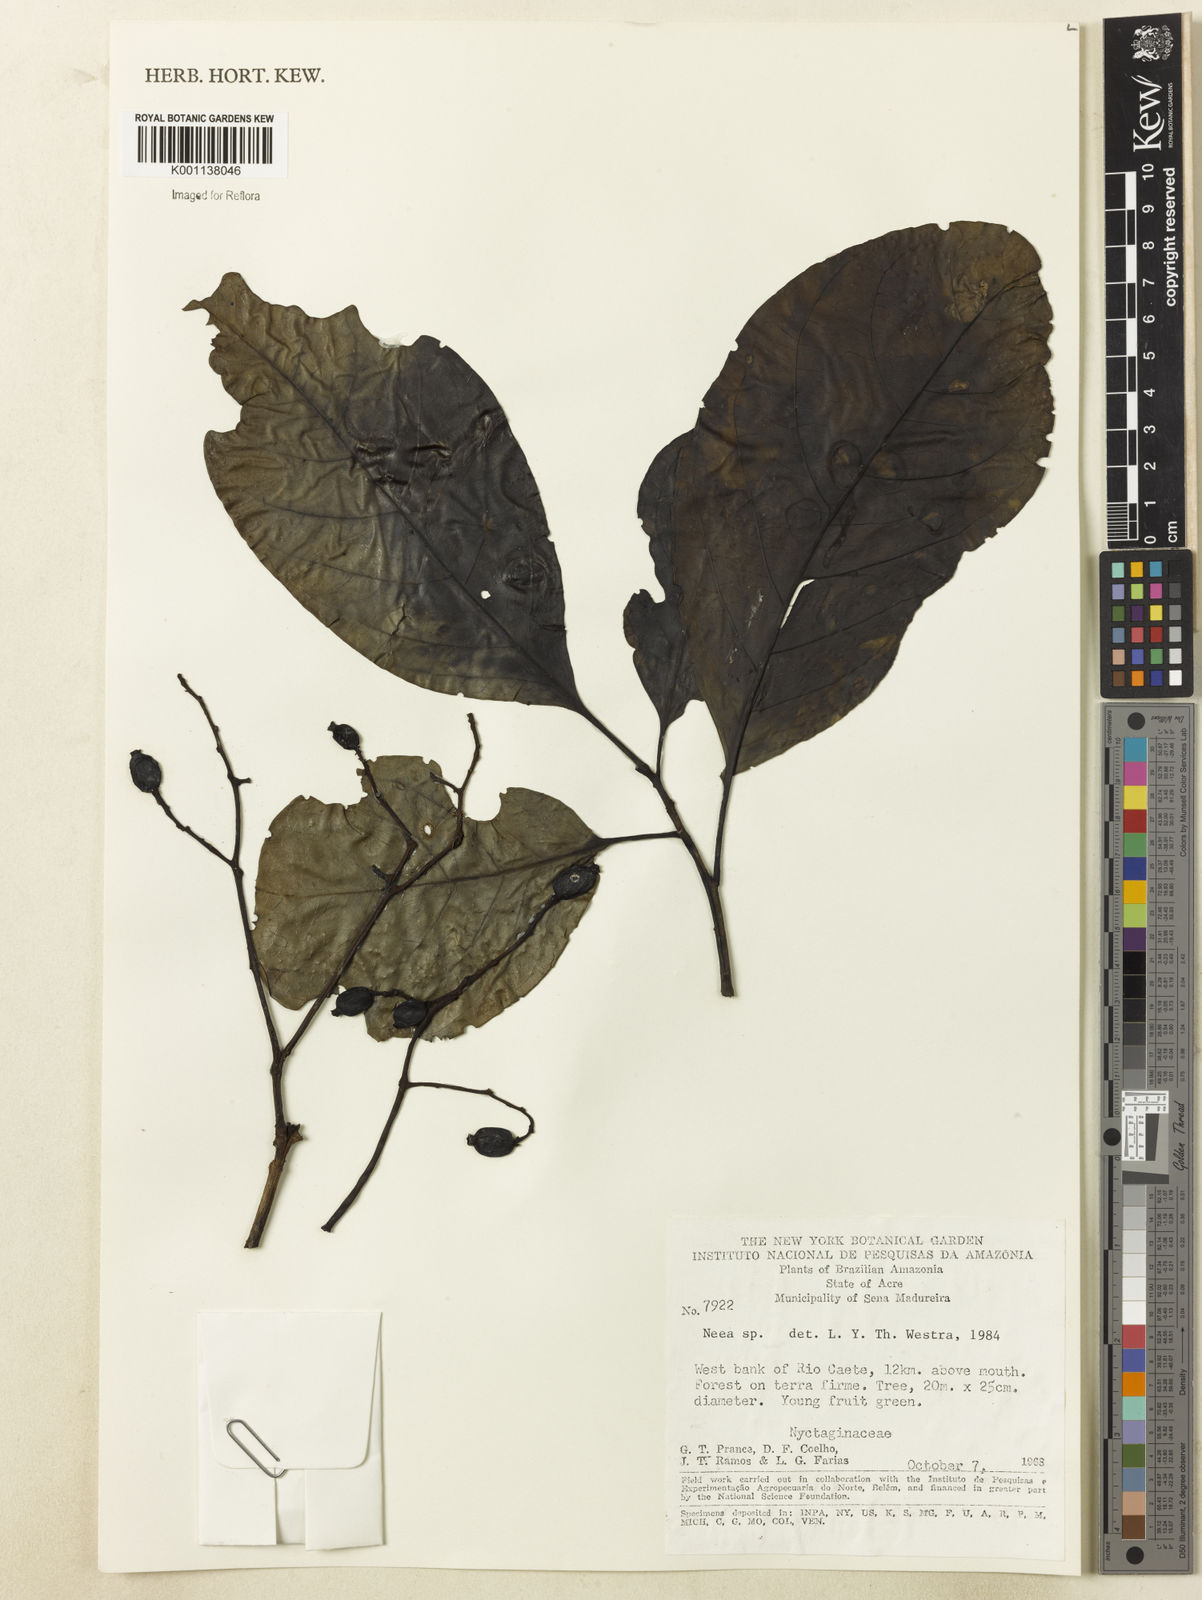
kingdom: Plantae
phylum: Tracheophyta
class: Magnoliopsida
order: Caryophyllales
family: Nyctaginaceae
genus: Neea
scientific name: Neea
